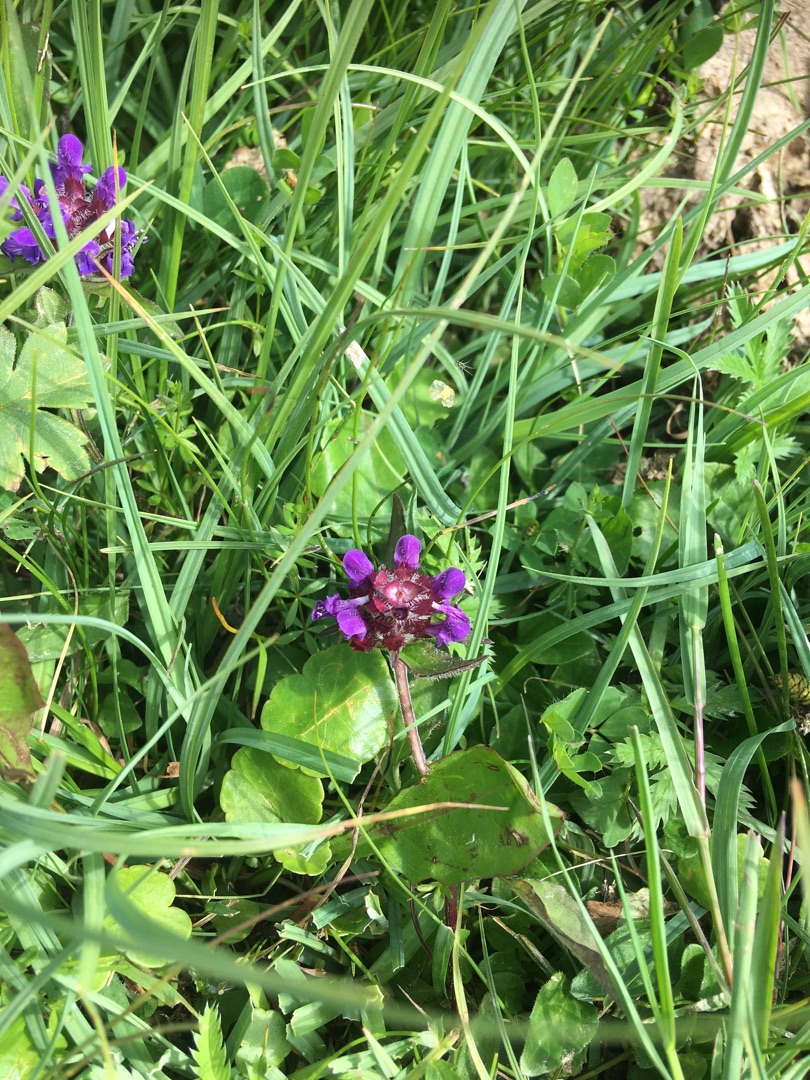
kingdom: Plantae
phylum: Tracheophyta
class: Magnoliopsida
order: Lamiales
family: Lamiaceae
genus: Prunella
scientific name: Prunella vulgaris
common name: Almindelig brunelle
